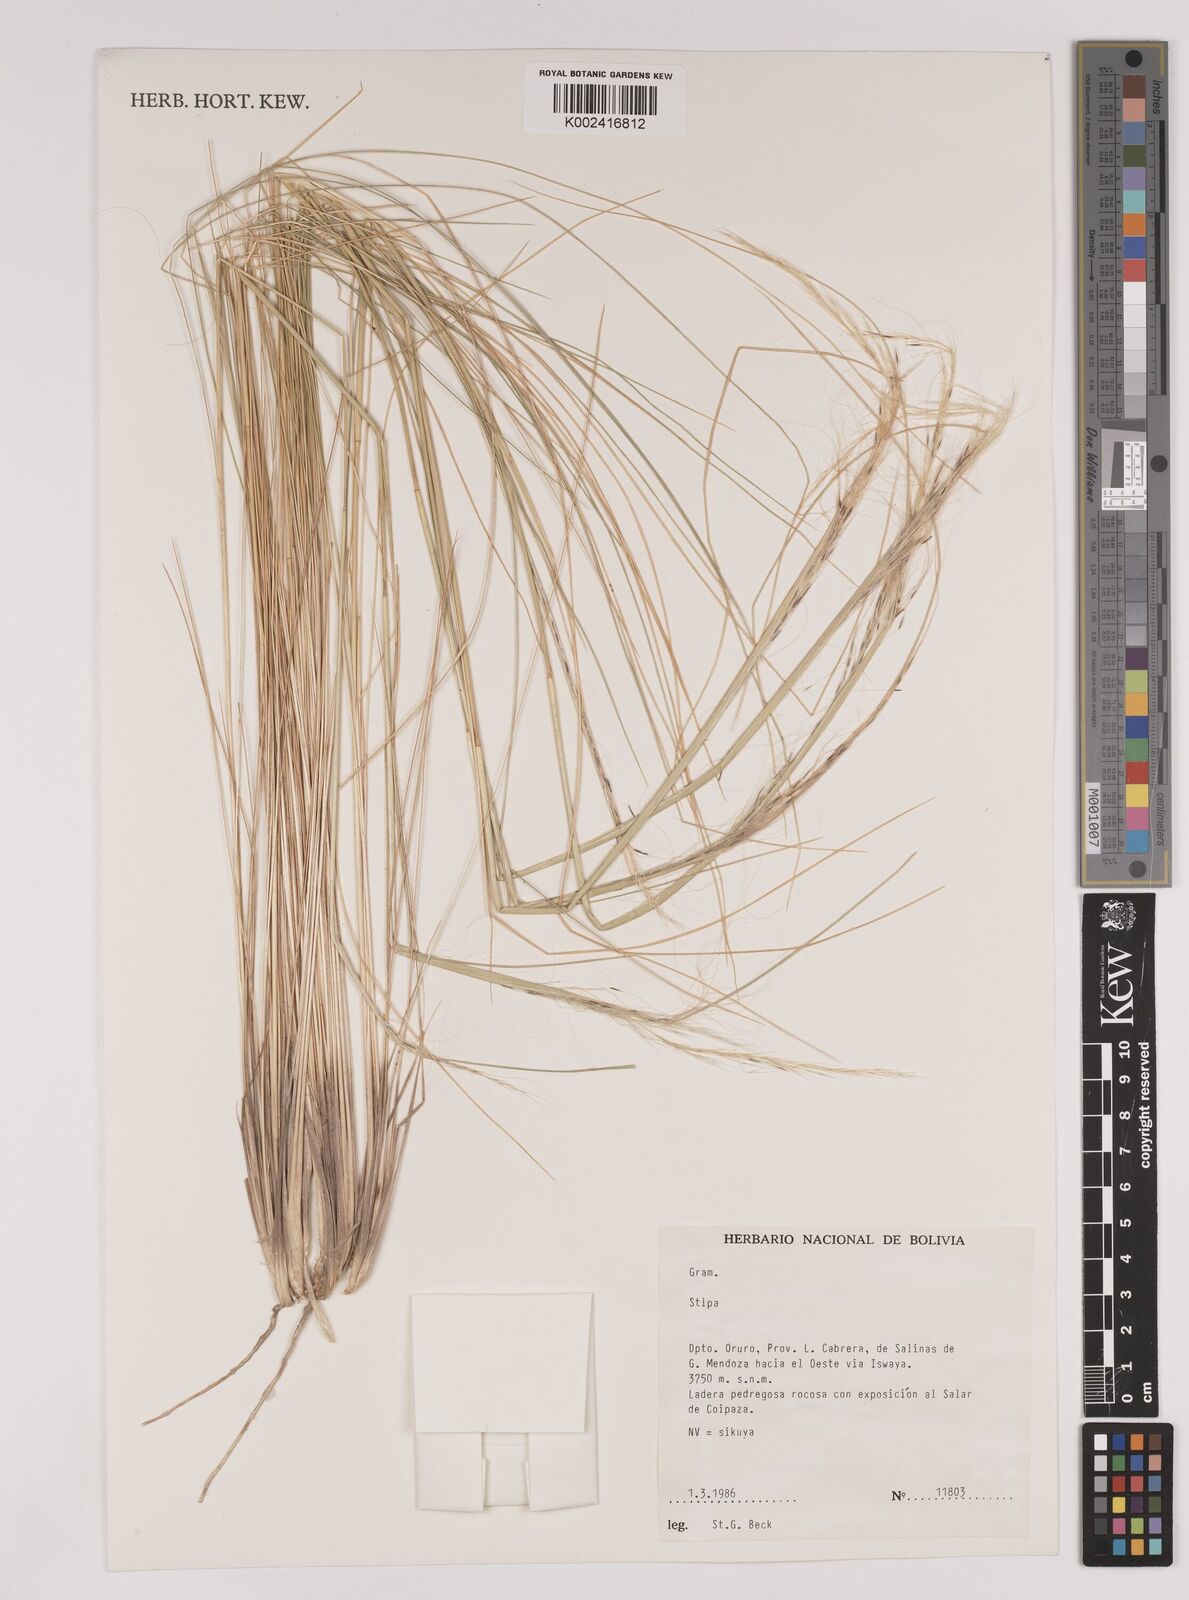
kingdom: Plantae
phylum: Tracheophyta
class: Liliopsida
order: Poales
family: Poaceae
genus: Stipa
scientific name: Stipa
